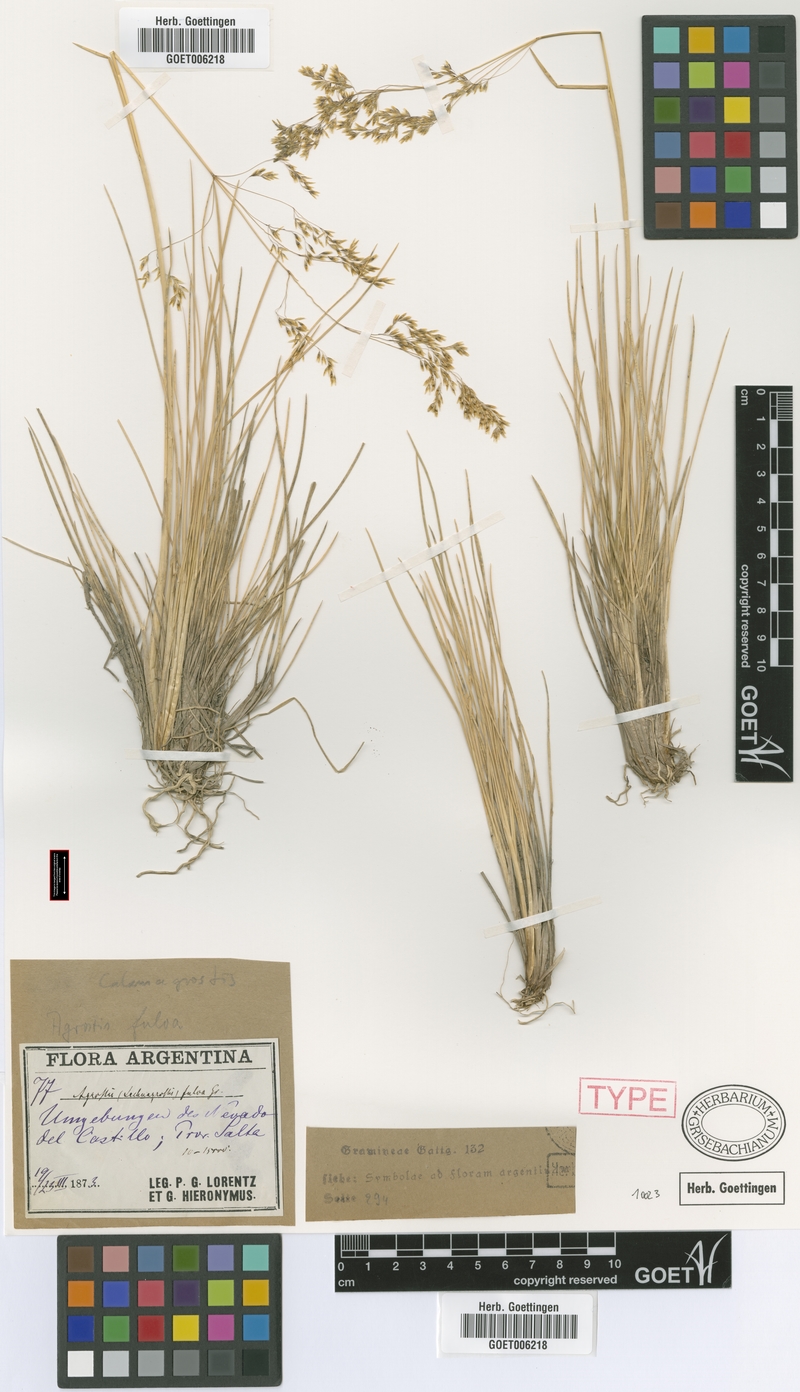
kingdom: Plantae
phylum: Tracheophyta
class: Liliopsida
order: Poales
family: Poaceae
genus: Deschampsia
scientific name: Deschampsia eminens
